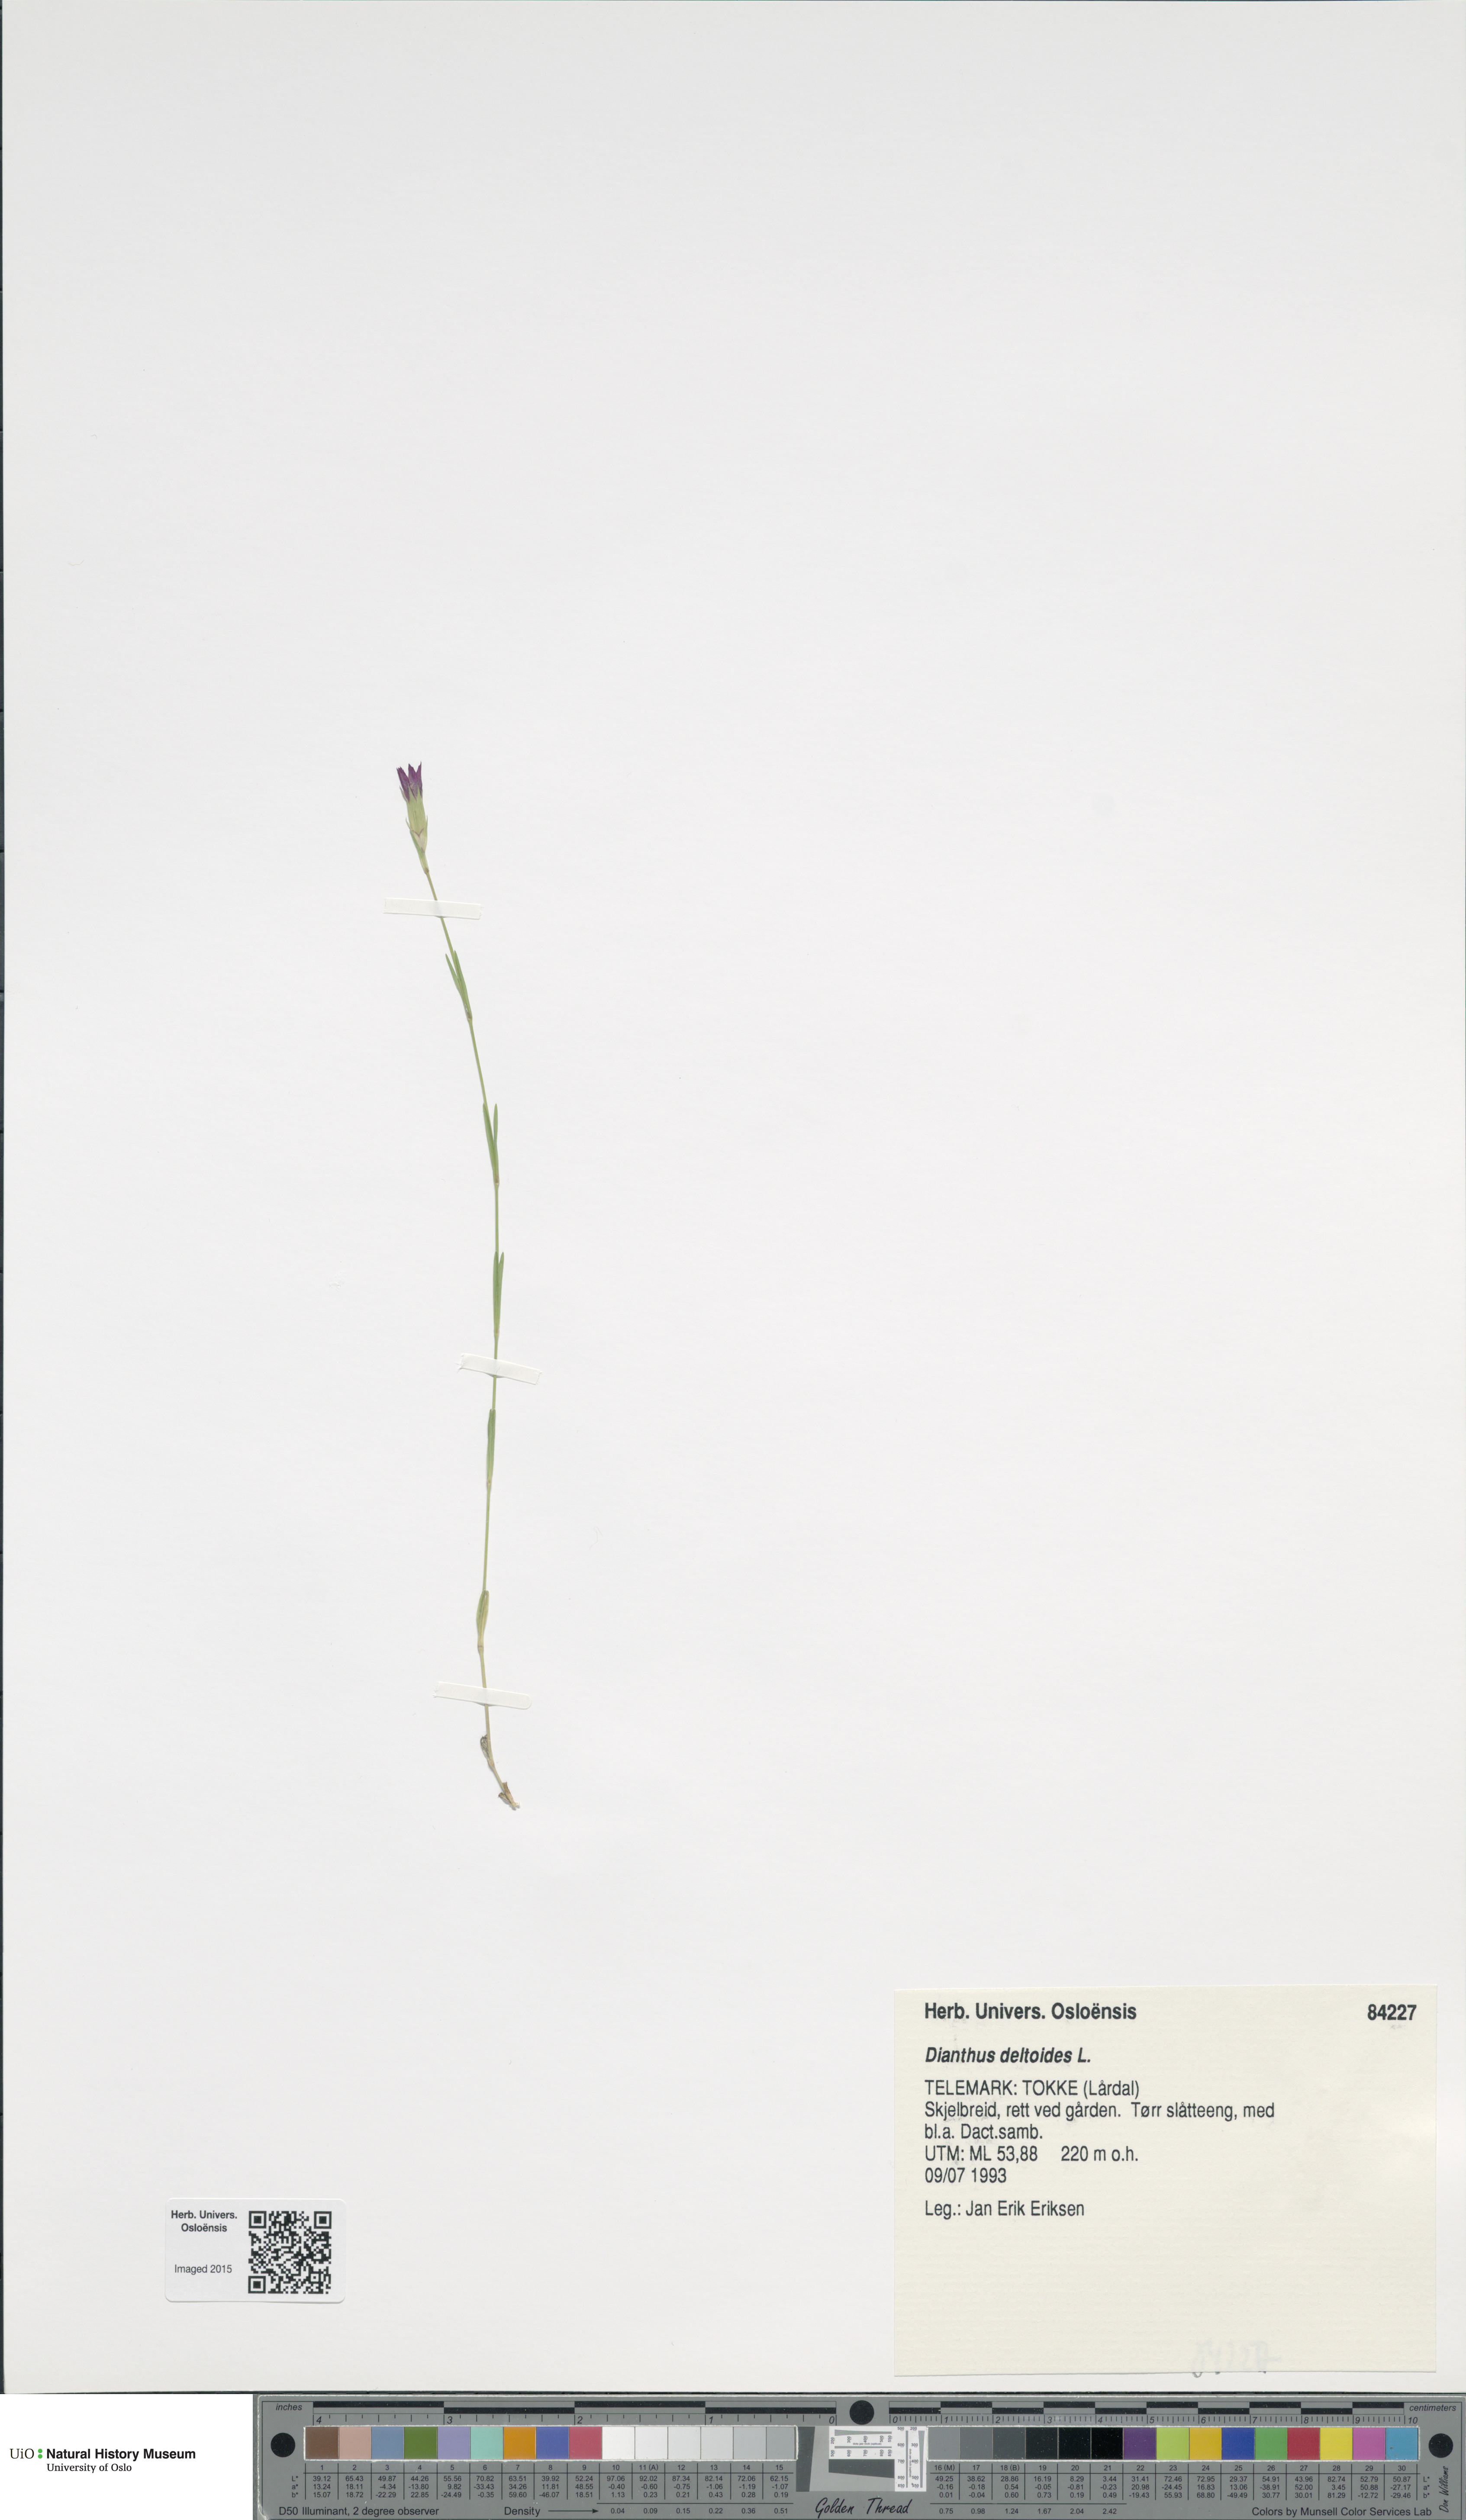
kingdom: Plantae
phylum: Tracheophyta
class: Magnoliopsida
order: Caryophyllales
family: Caryophyllaceae
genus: Dianthus
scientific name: Dianthus deltoides
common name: Maiden pink
